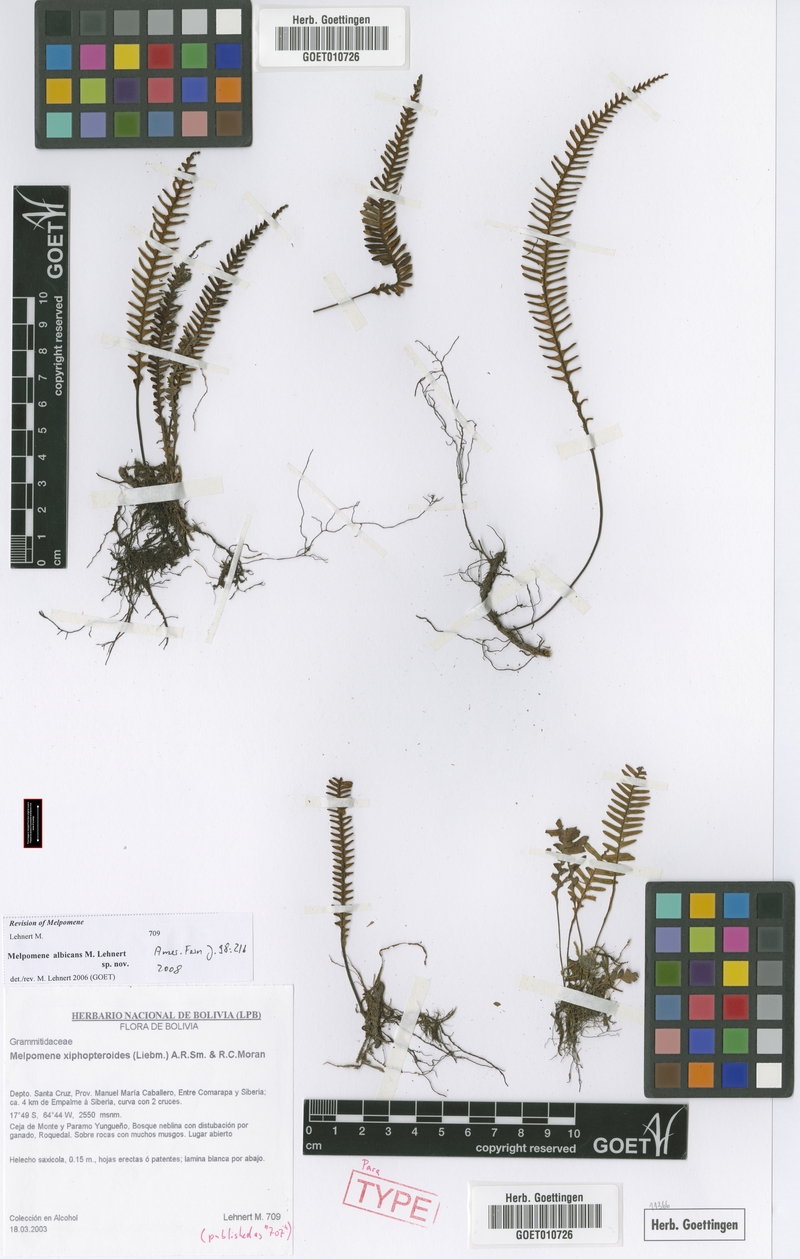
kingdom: Plantae
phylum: Tracheophyta
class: Polypodiopsida
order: Polypodiales
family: Polypodiaceae
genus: Melpomene
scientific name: Melpomene albicans
